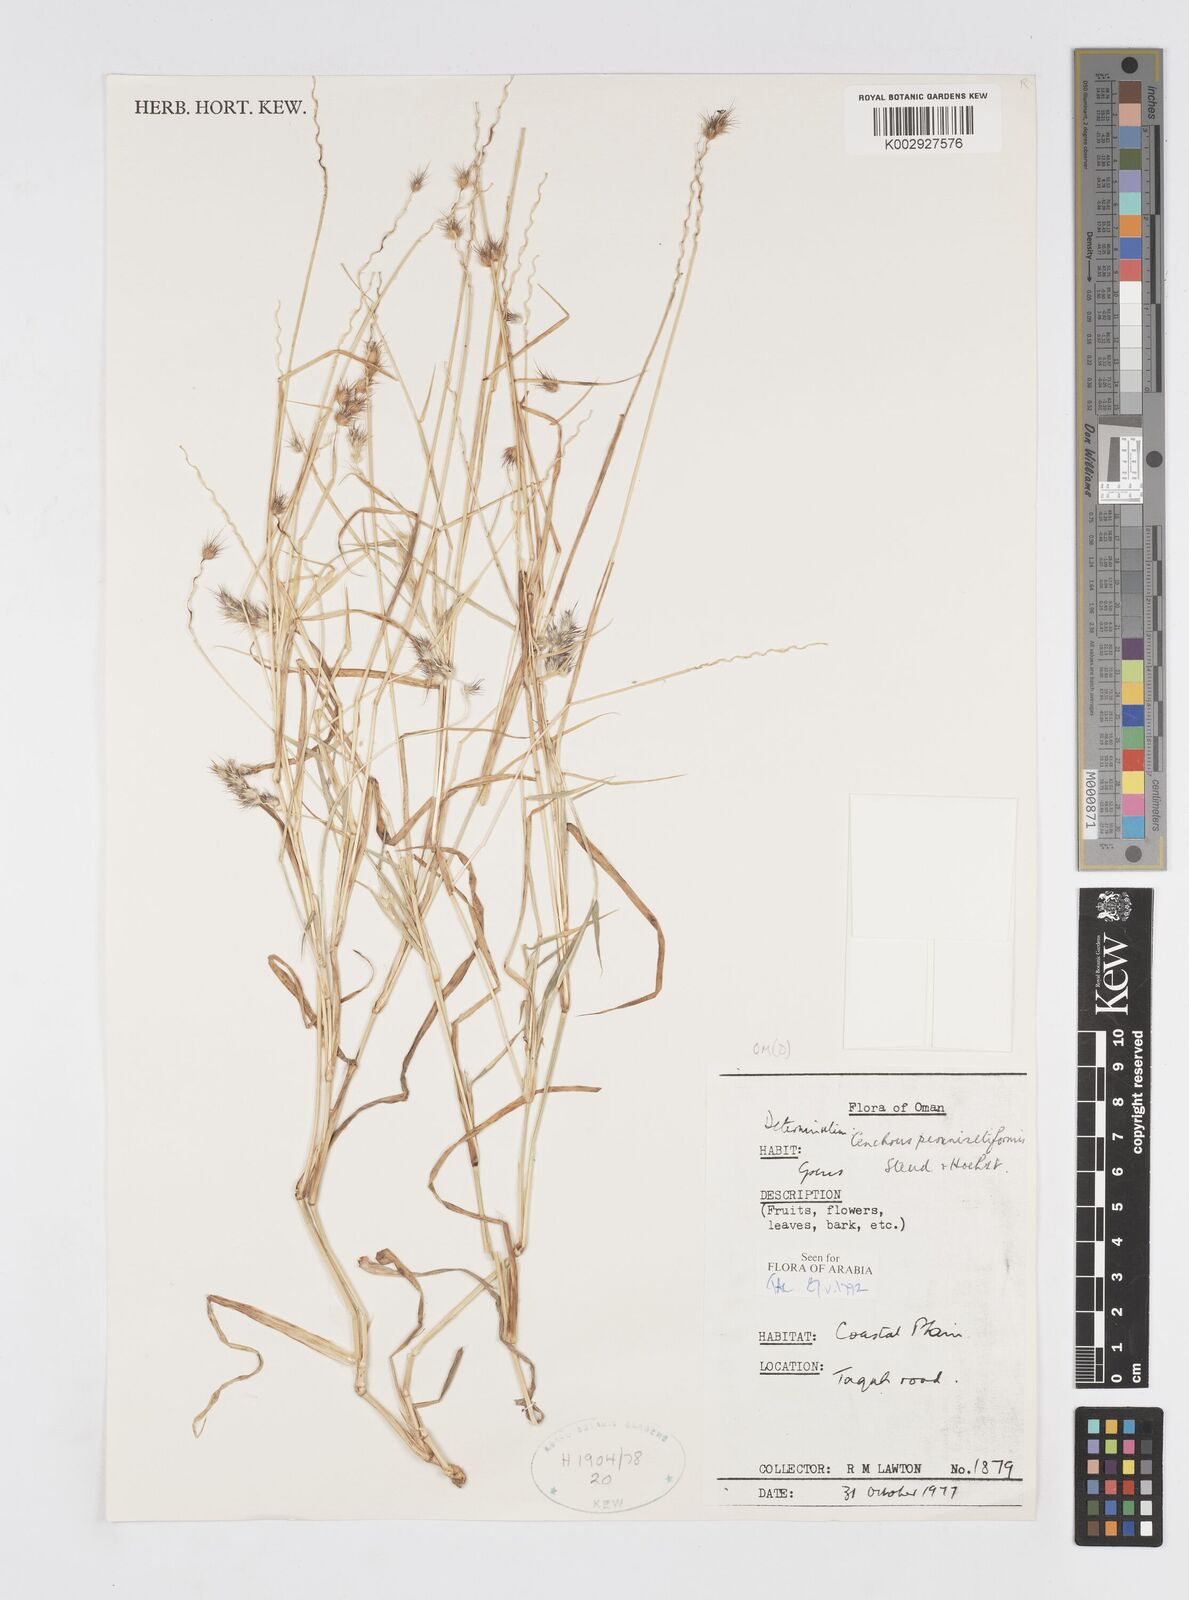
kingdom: Plantae
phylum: Tracheophyta
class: Liliopsida
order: Poales
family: Poaceae
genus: Cenchrus
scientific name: Cenchrus pennisetiformis
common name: Cloncurry
